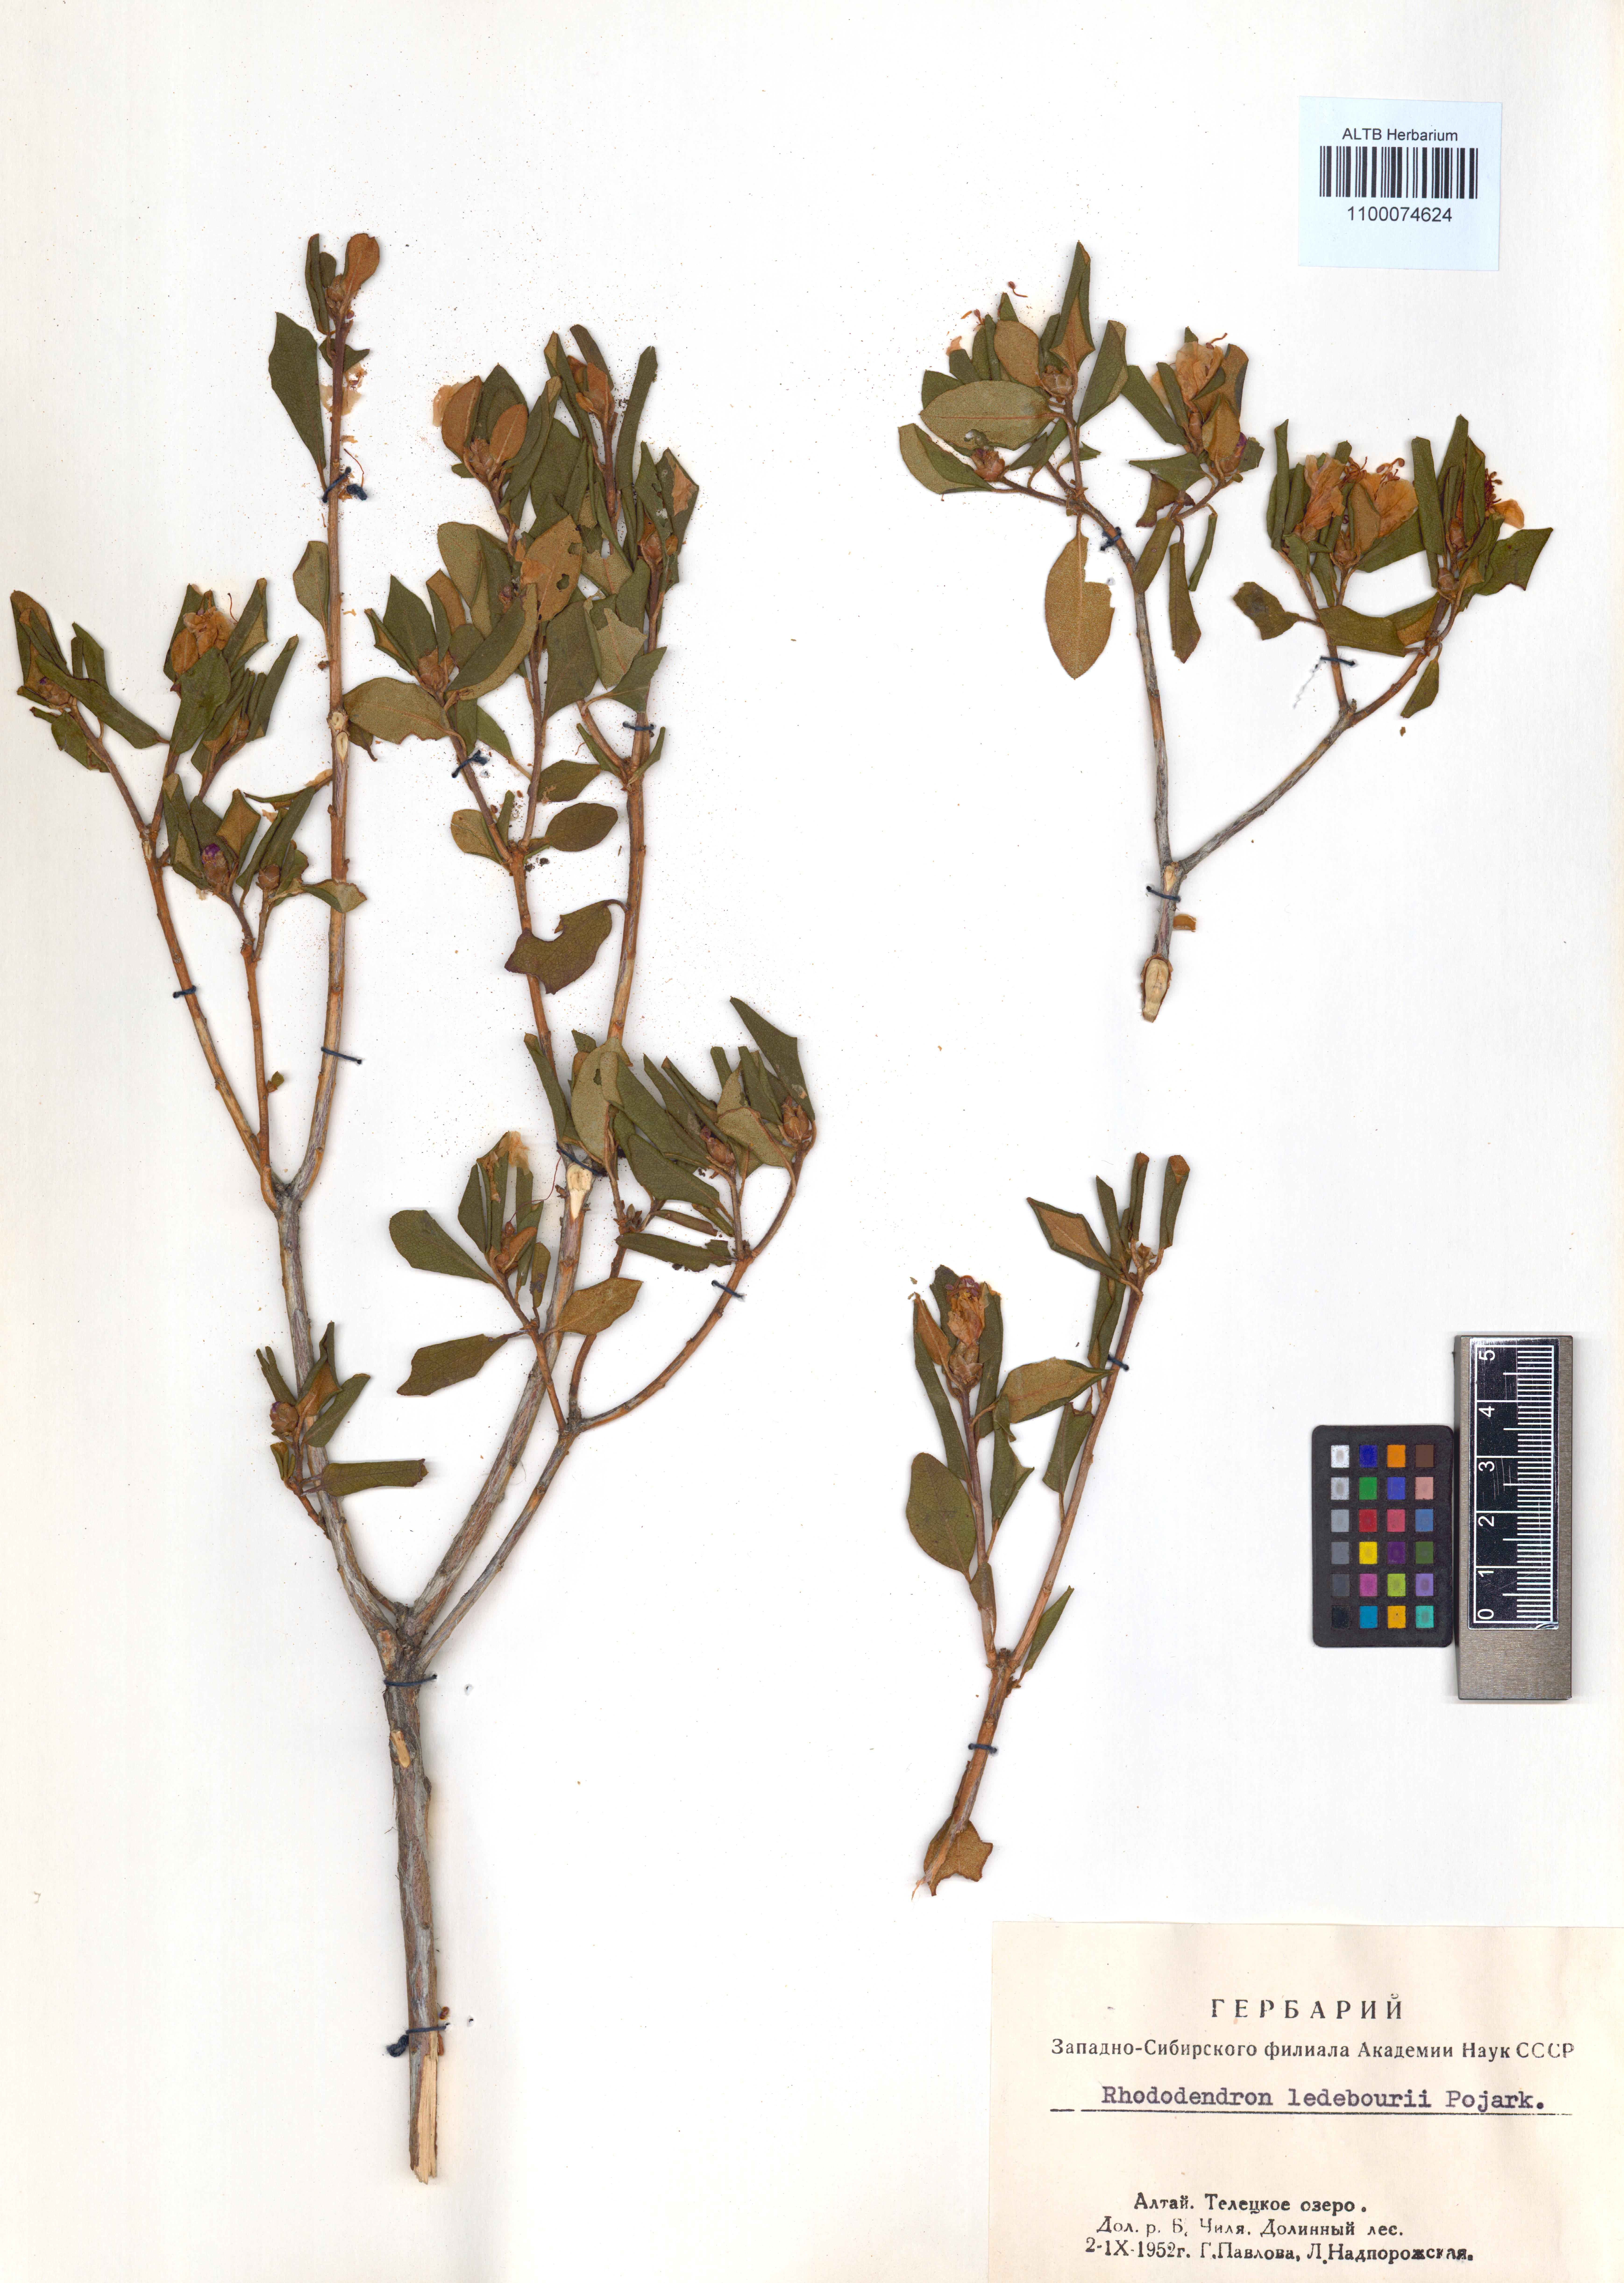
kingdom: Plantae
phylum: Tracheophyta
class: Magnoliopsida
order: Ericales
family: Ericaceae
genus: Rhododendron
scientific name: Rhododendron dauricum
